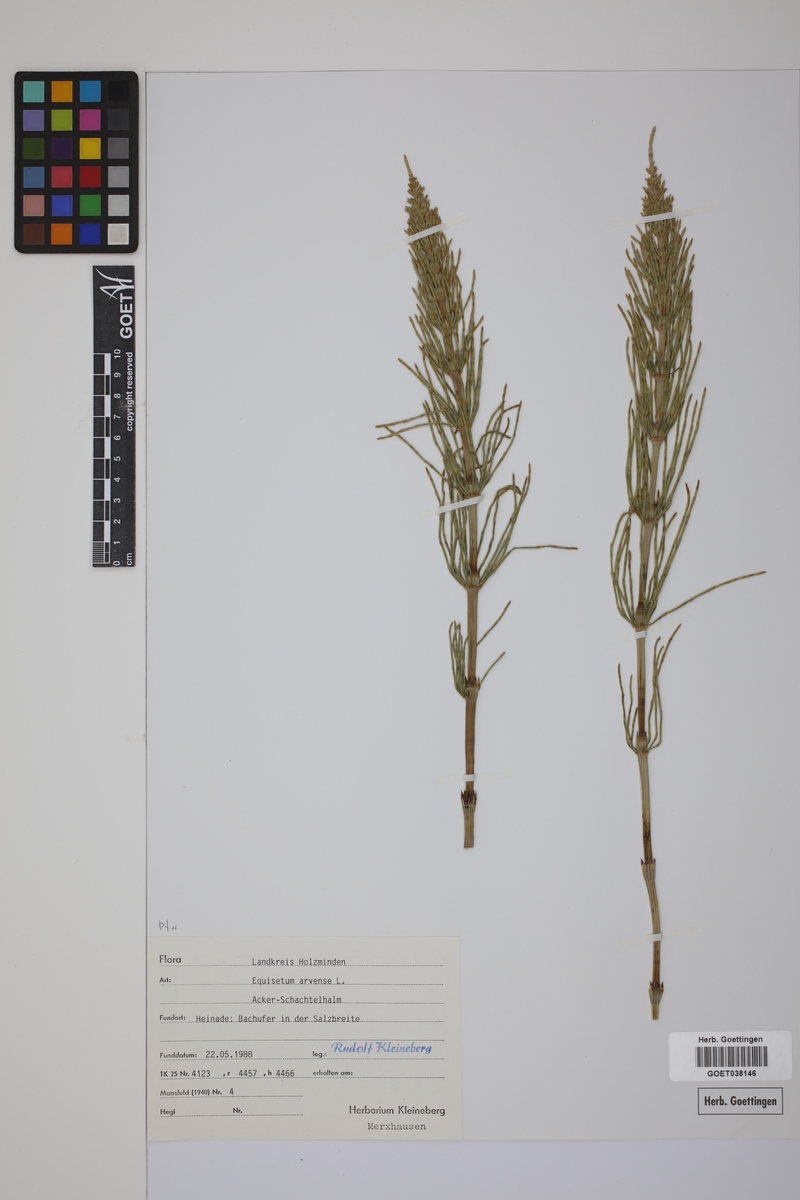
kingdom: Plantae
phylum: Tracheophyta
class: Polypodiopsida
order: Equisetales
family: Equisetaceae
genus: Equisetum
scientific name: Equisetum arvense
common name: Field horsetail
